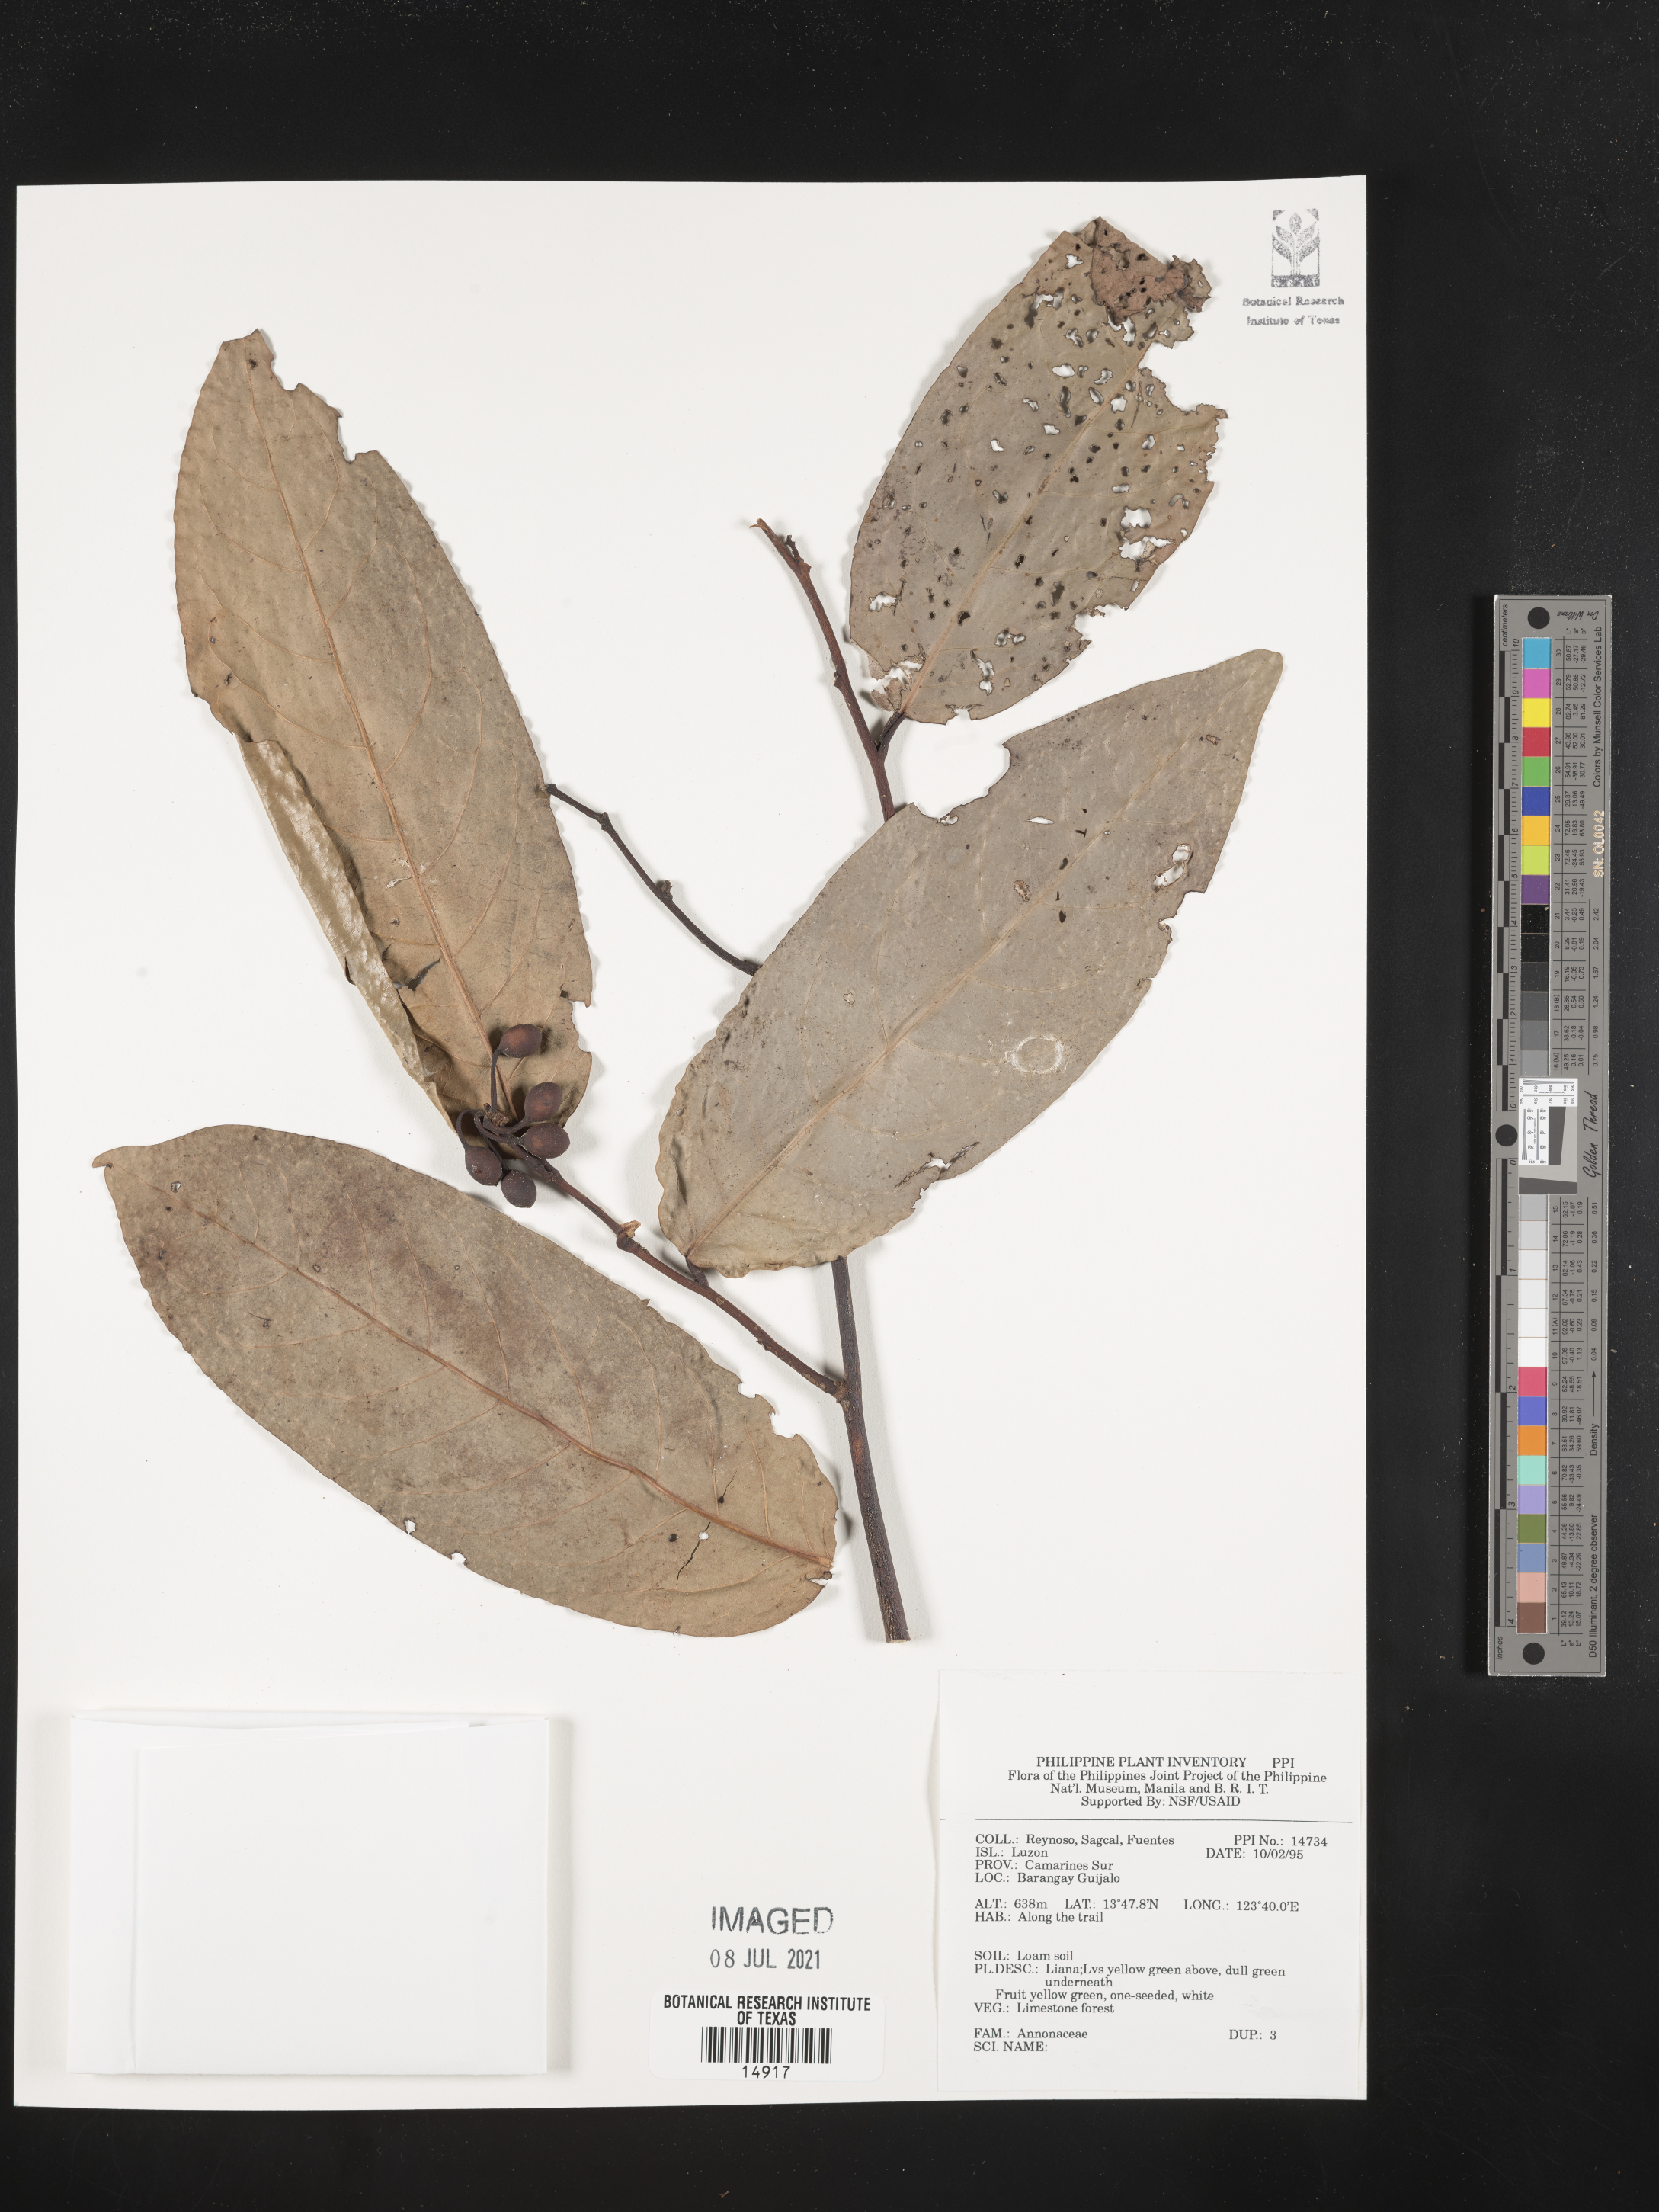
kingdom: Plantae
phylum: Tracheophyta
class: Magnoliopsida
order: Magnoliales
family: Annonaceae
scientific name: Annonaceae
